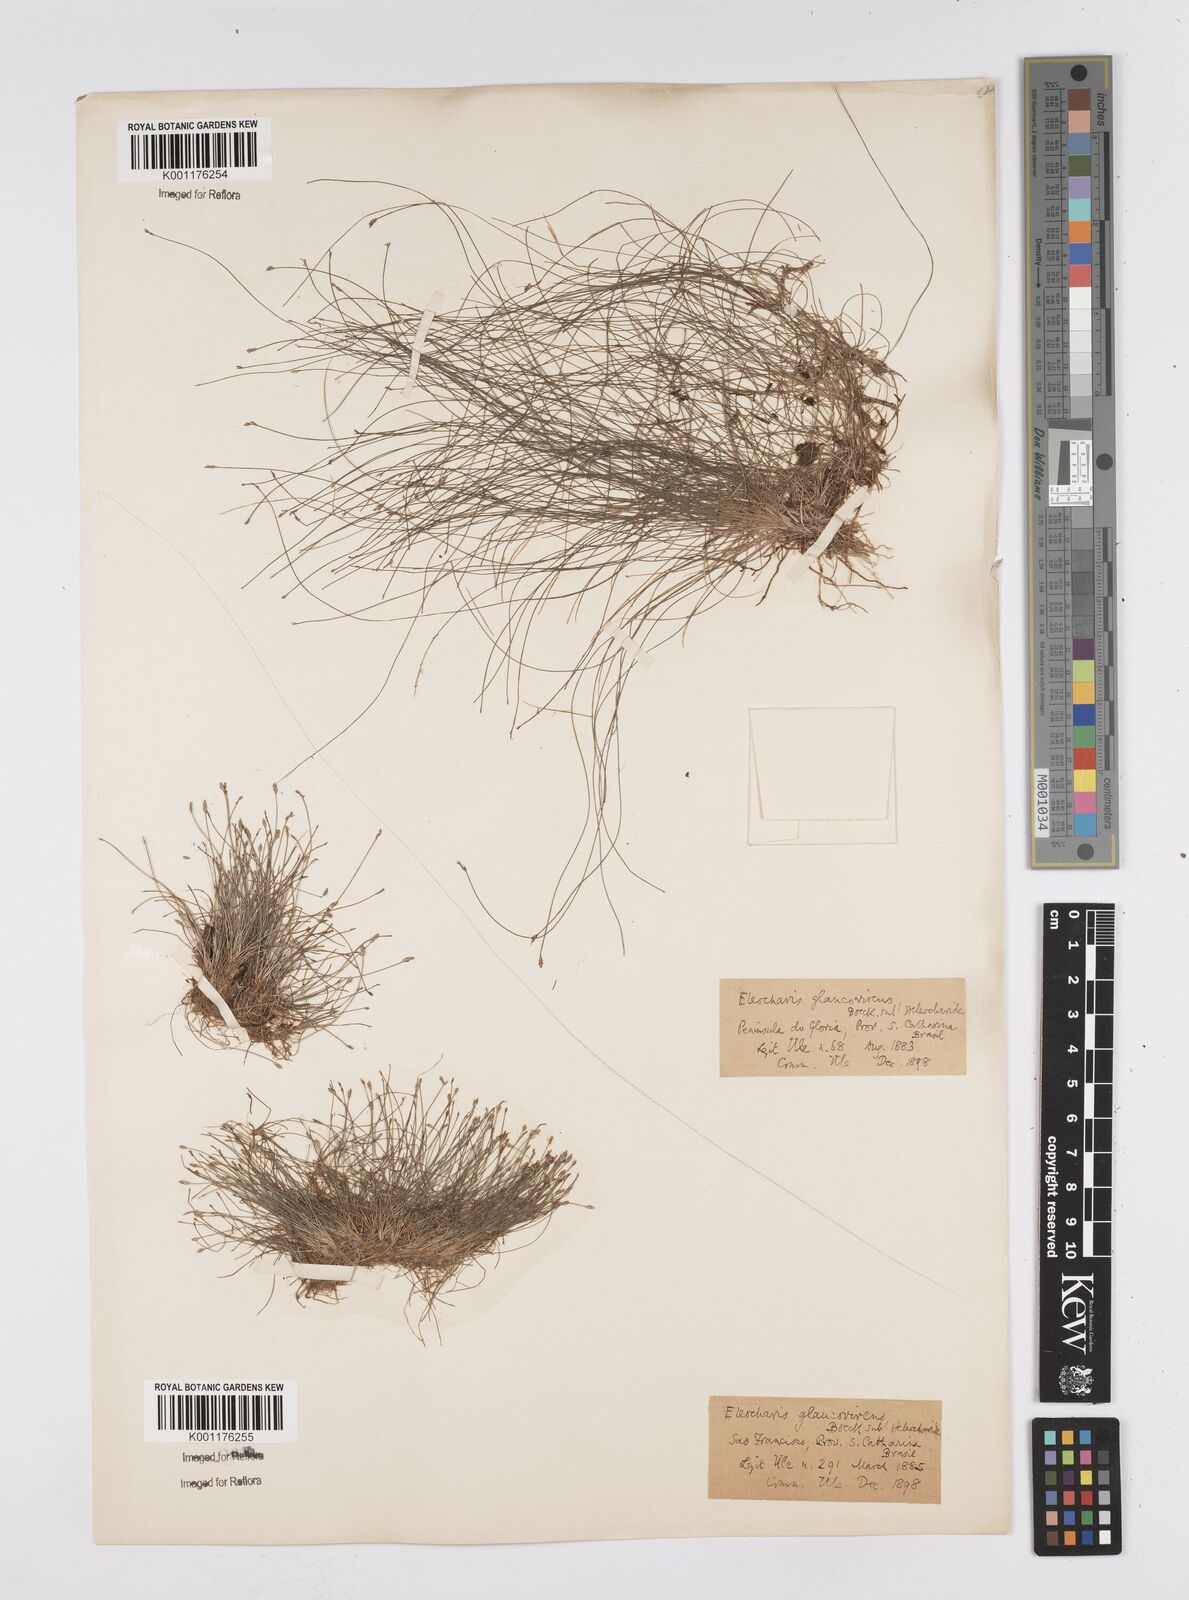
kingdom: Plantae
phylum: Tracheophyta
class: Liliopsida
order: Poales
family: Cyperaceae
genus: Eleocharis
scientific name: Eleocharis glaucovirens
